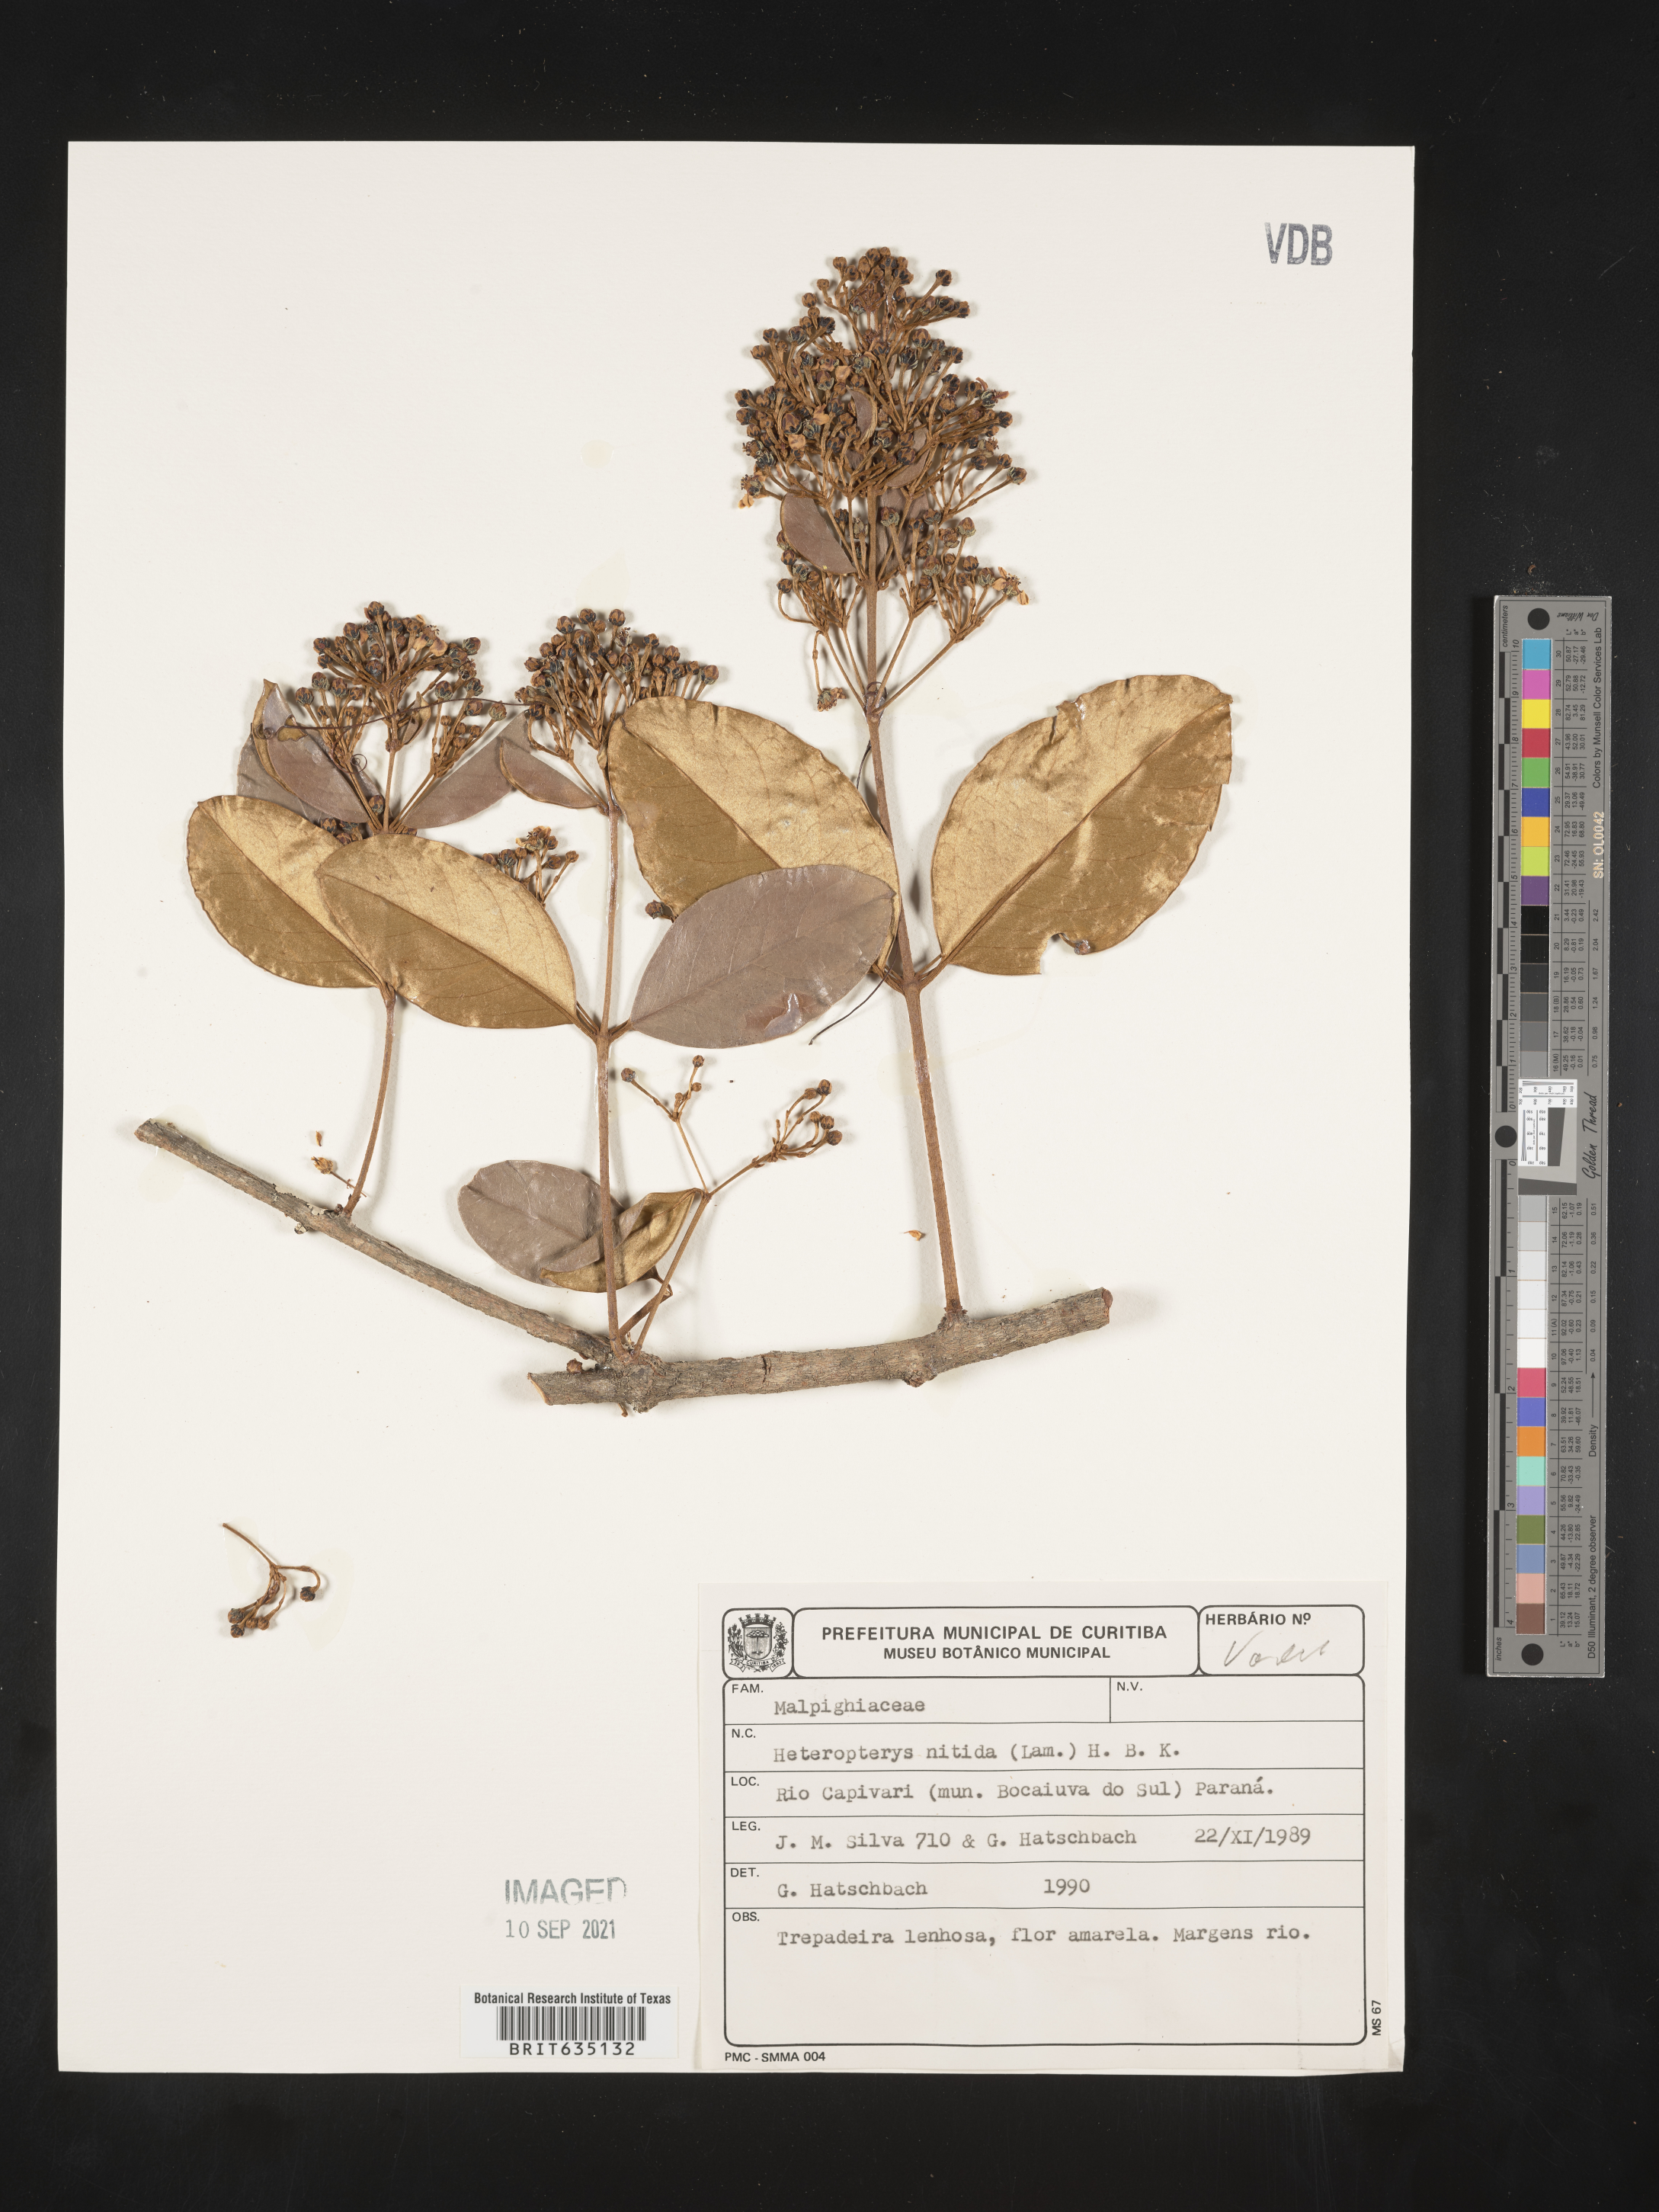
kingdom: Plantae
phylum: Tracheophyta
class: Polypodiopsida
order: Polypodiales
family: Pteridaceae
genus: Heteropteris
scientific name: Heteropteris
